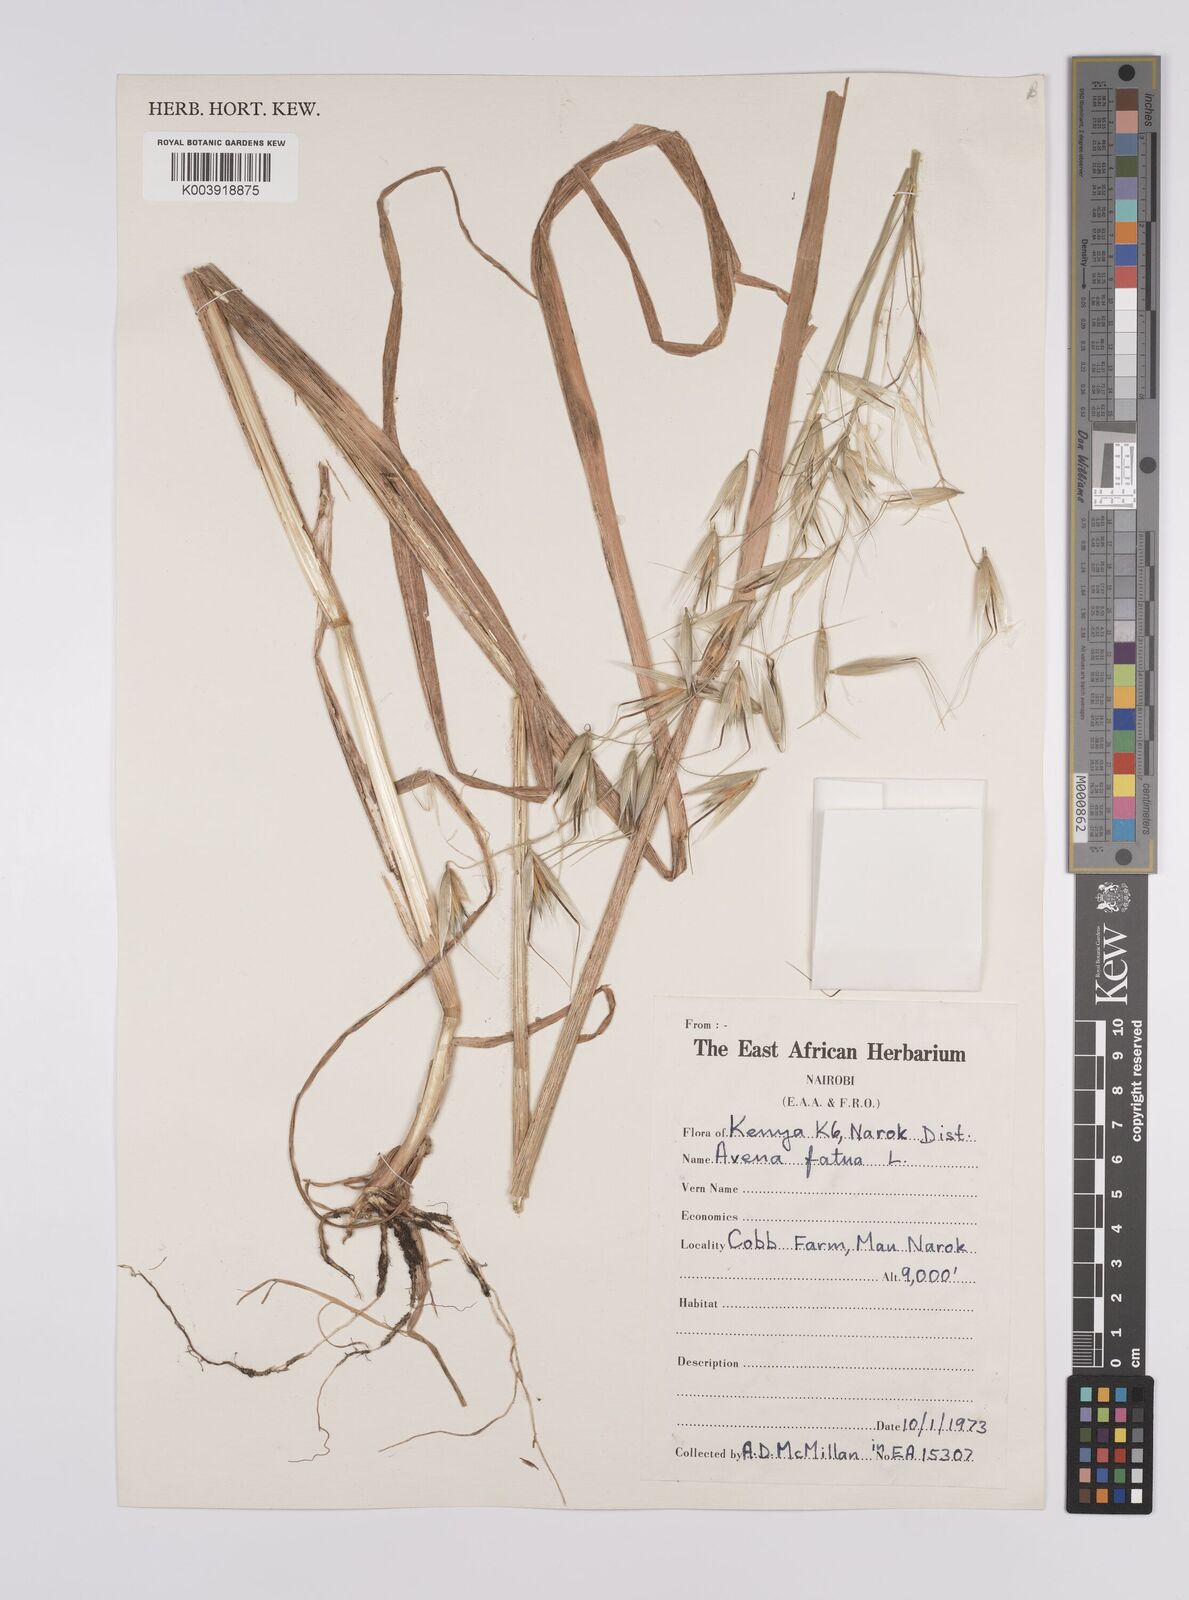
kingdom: Plantae
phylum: Tracheophyta
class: Liliopsida
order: Poales
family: Poaceae
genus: Avena
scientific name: Avena fatua
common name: Wild oat
